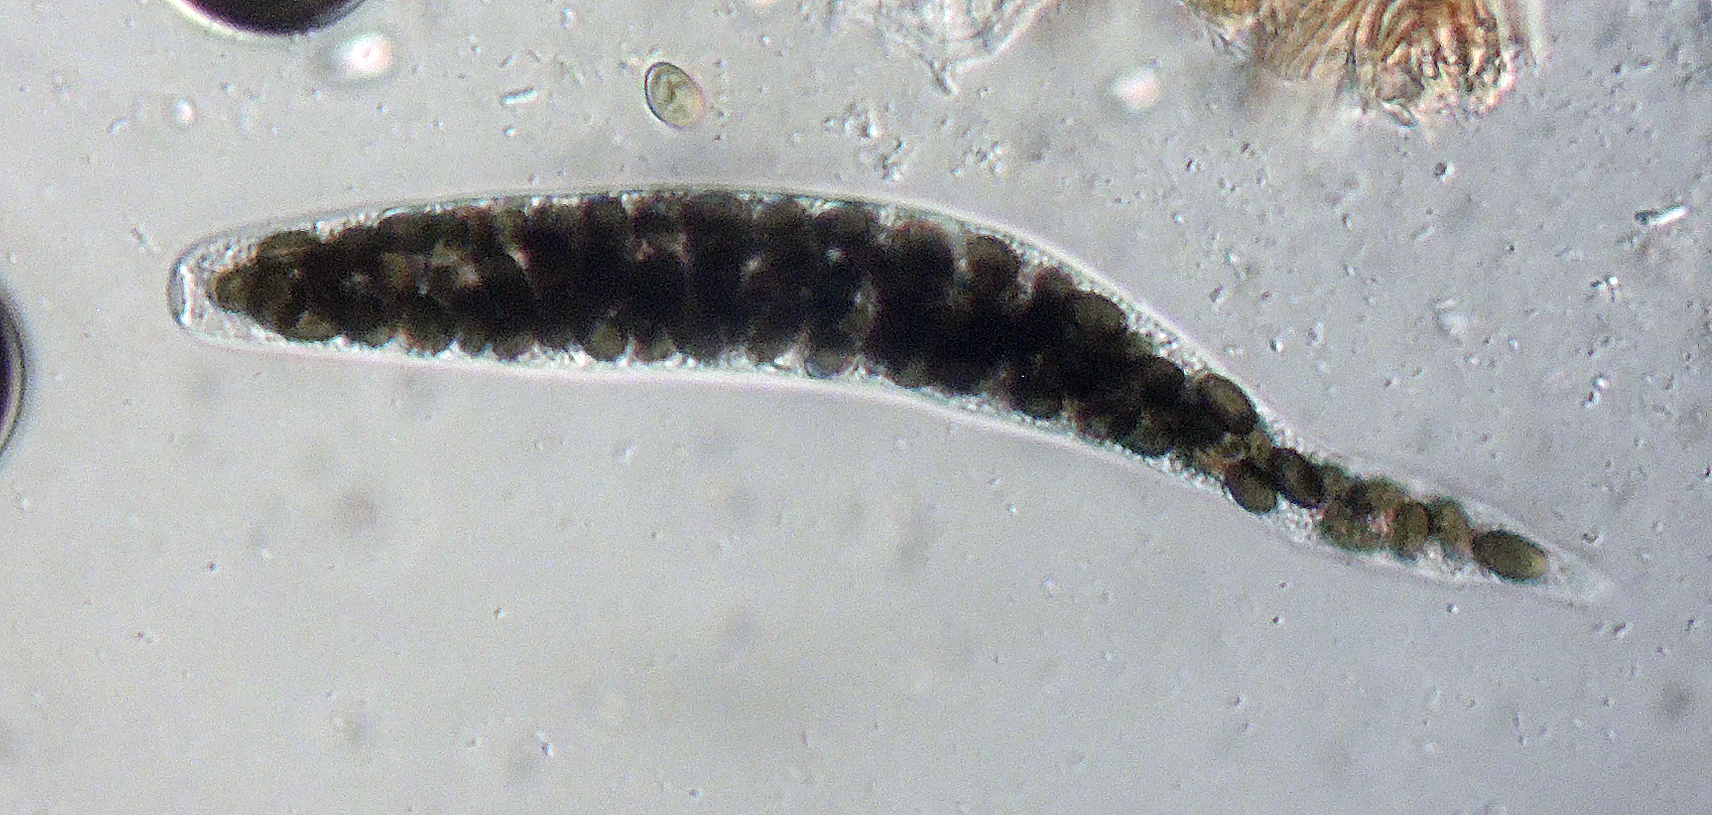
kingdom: Fungi
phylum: Ascomycota
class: Sordariomycetes
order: Coniochaetales
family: Coniochaetaceae
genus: Coniochaeta
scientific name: Coniochaeta hansenii
